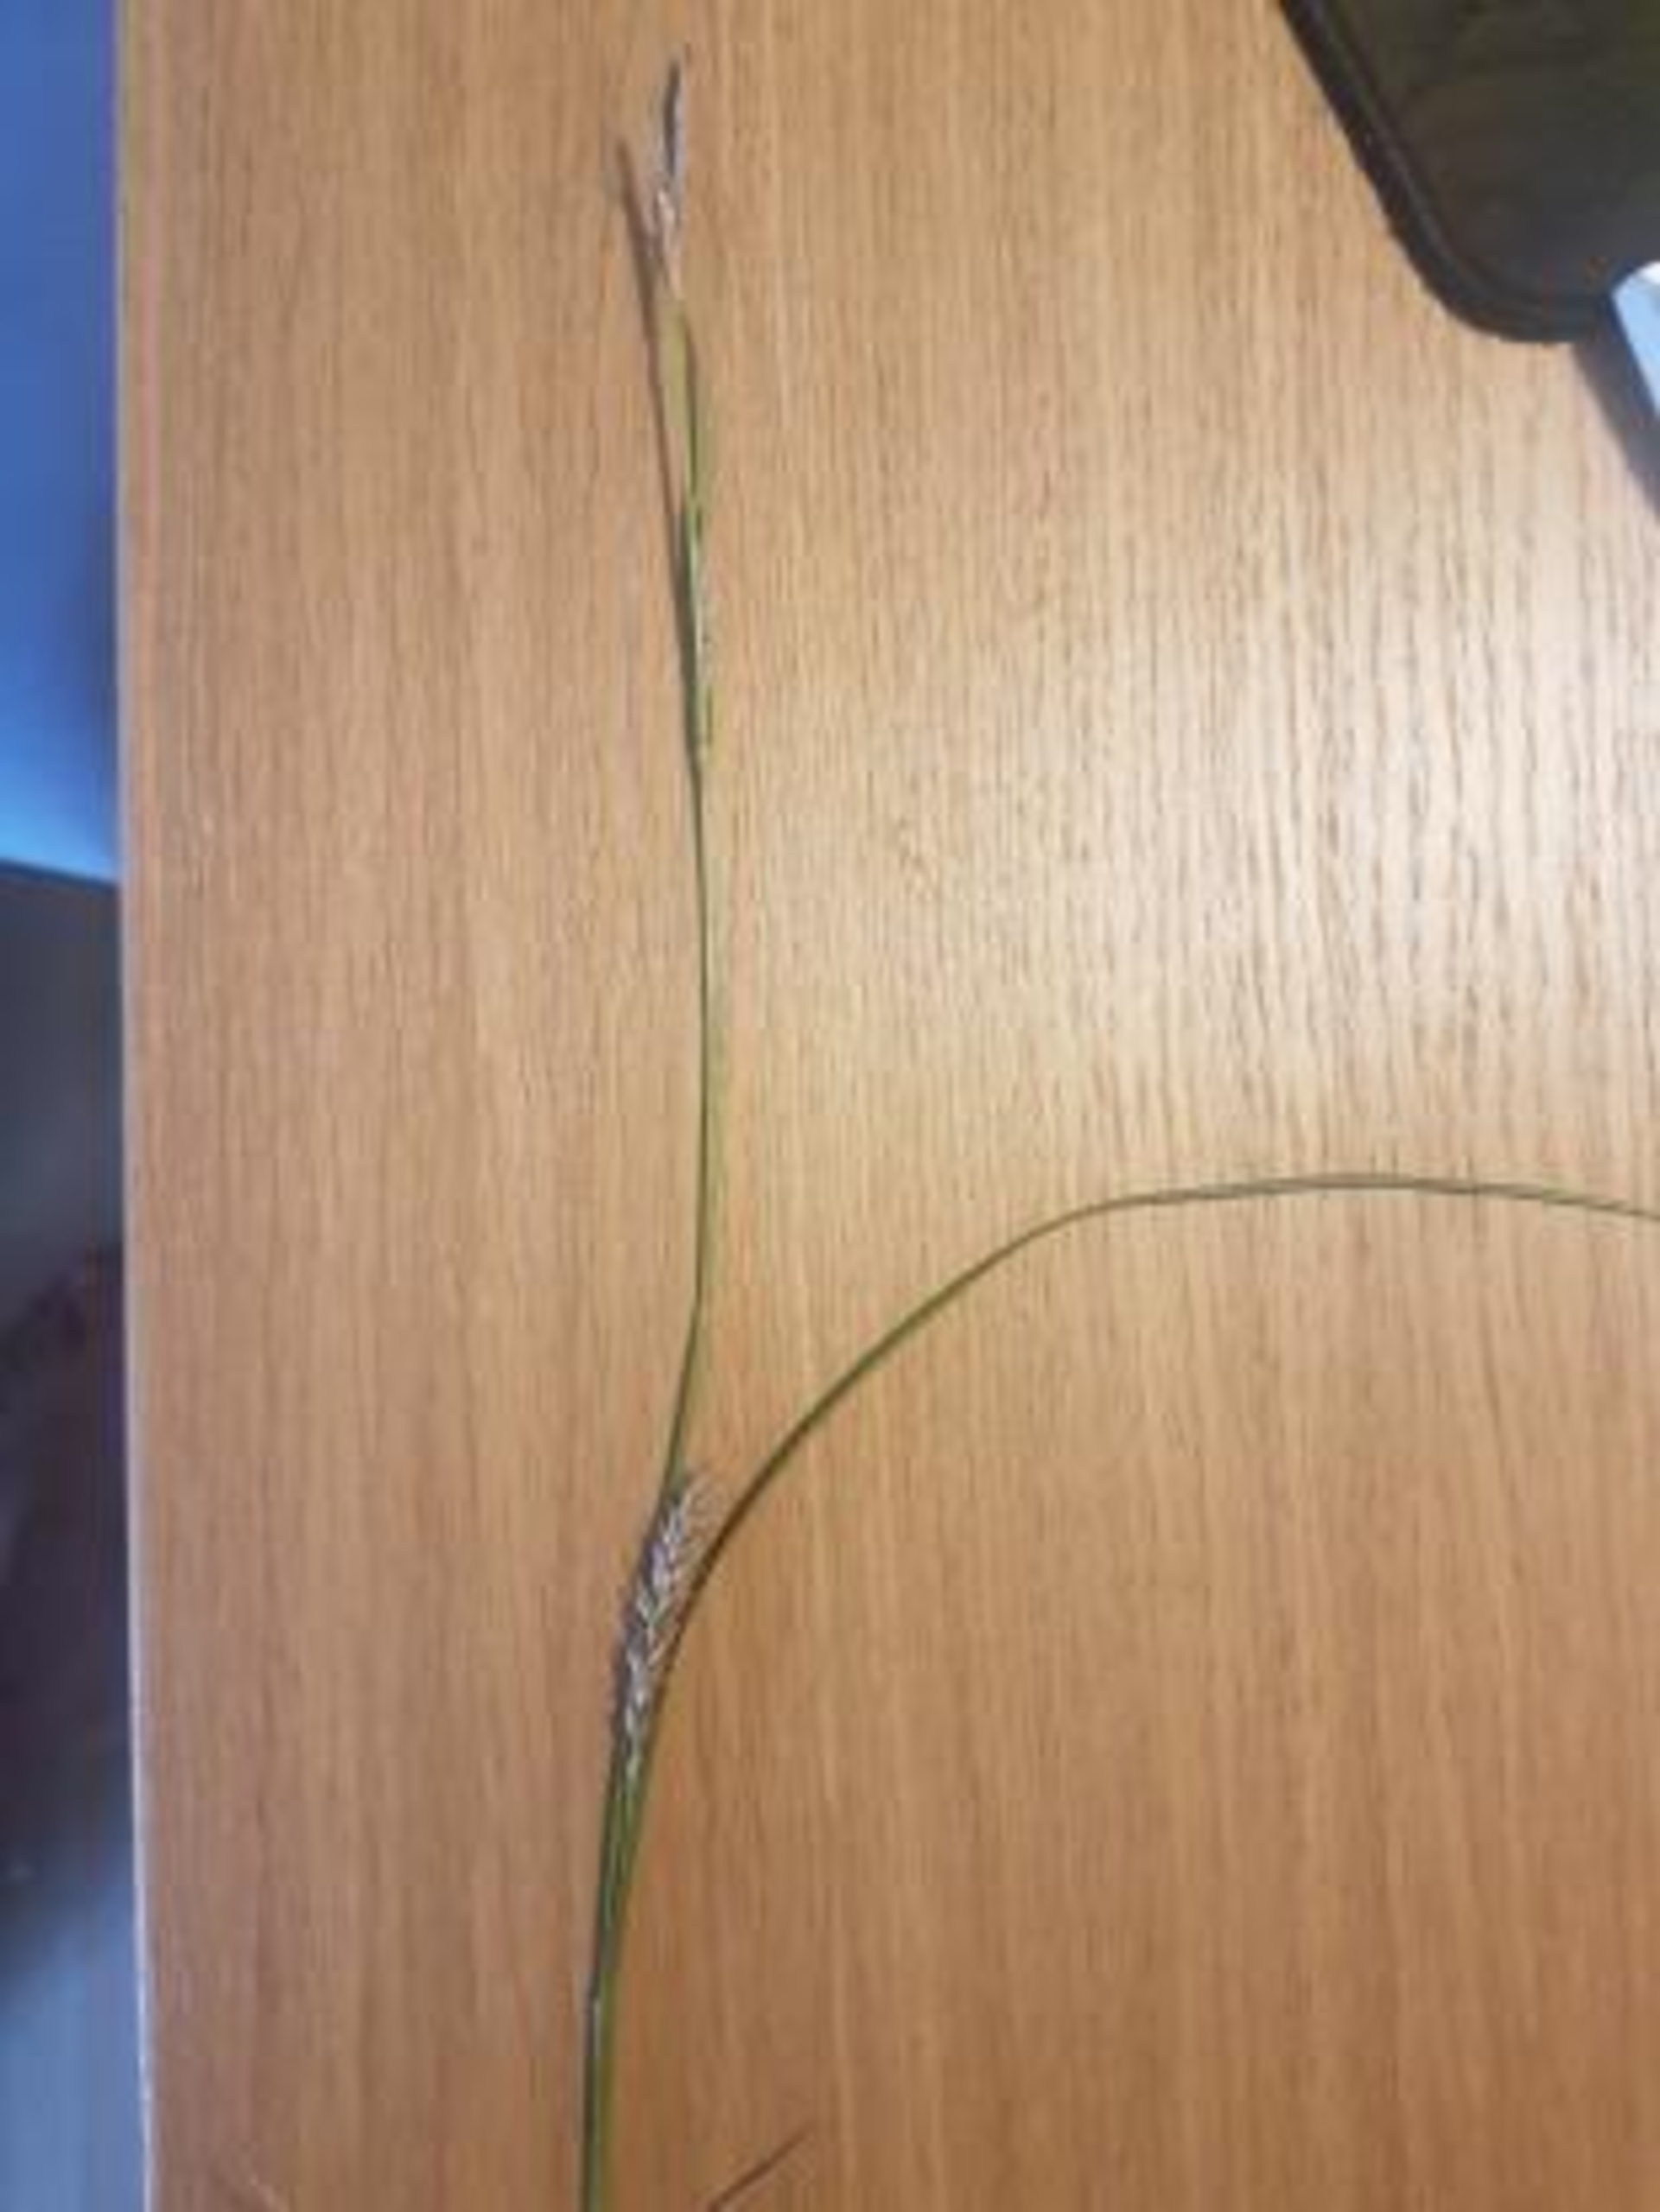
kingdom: Plantae
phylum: Tracheophyta
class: Liliopsida
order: Poales
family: Cyperaceae
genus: Carex
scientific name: Carex hirta
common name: Håret star
